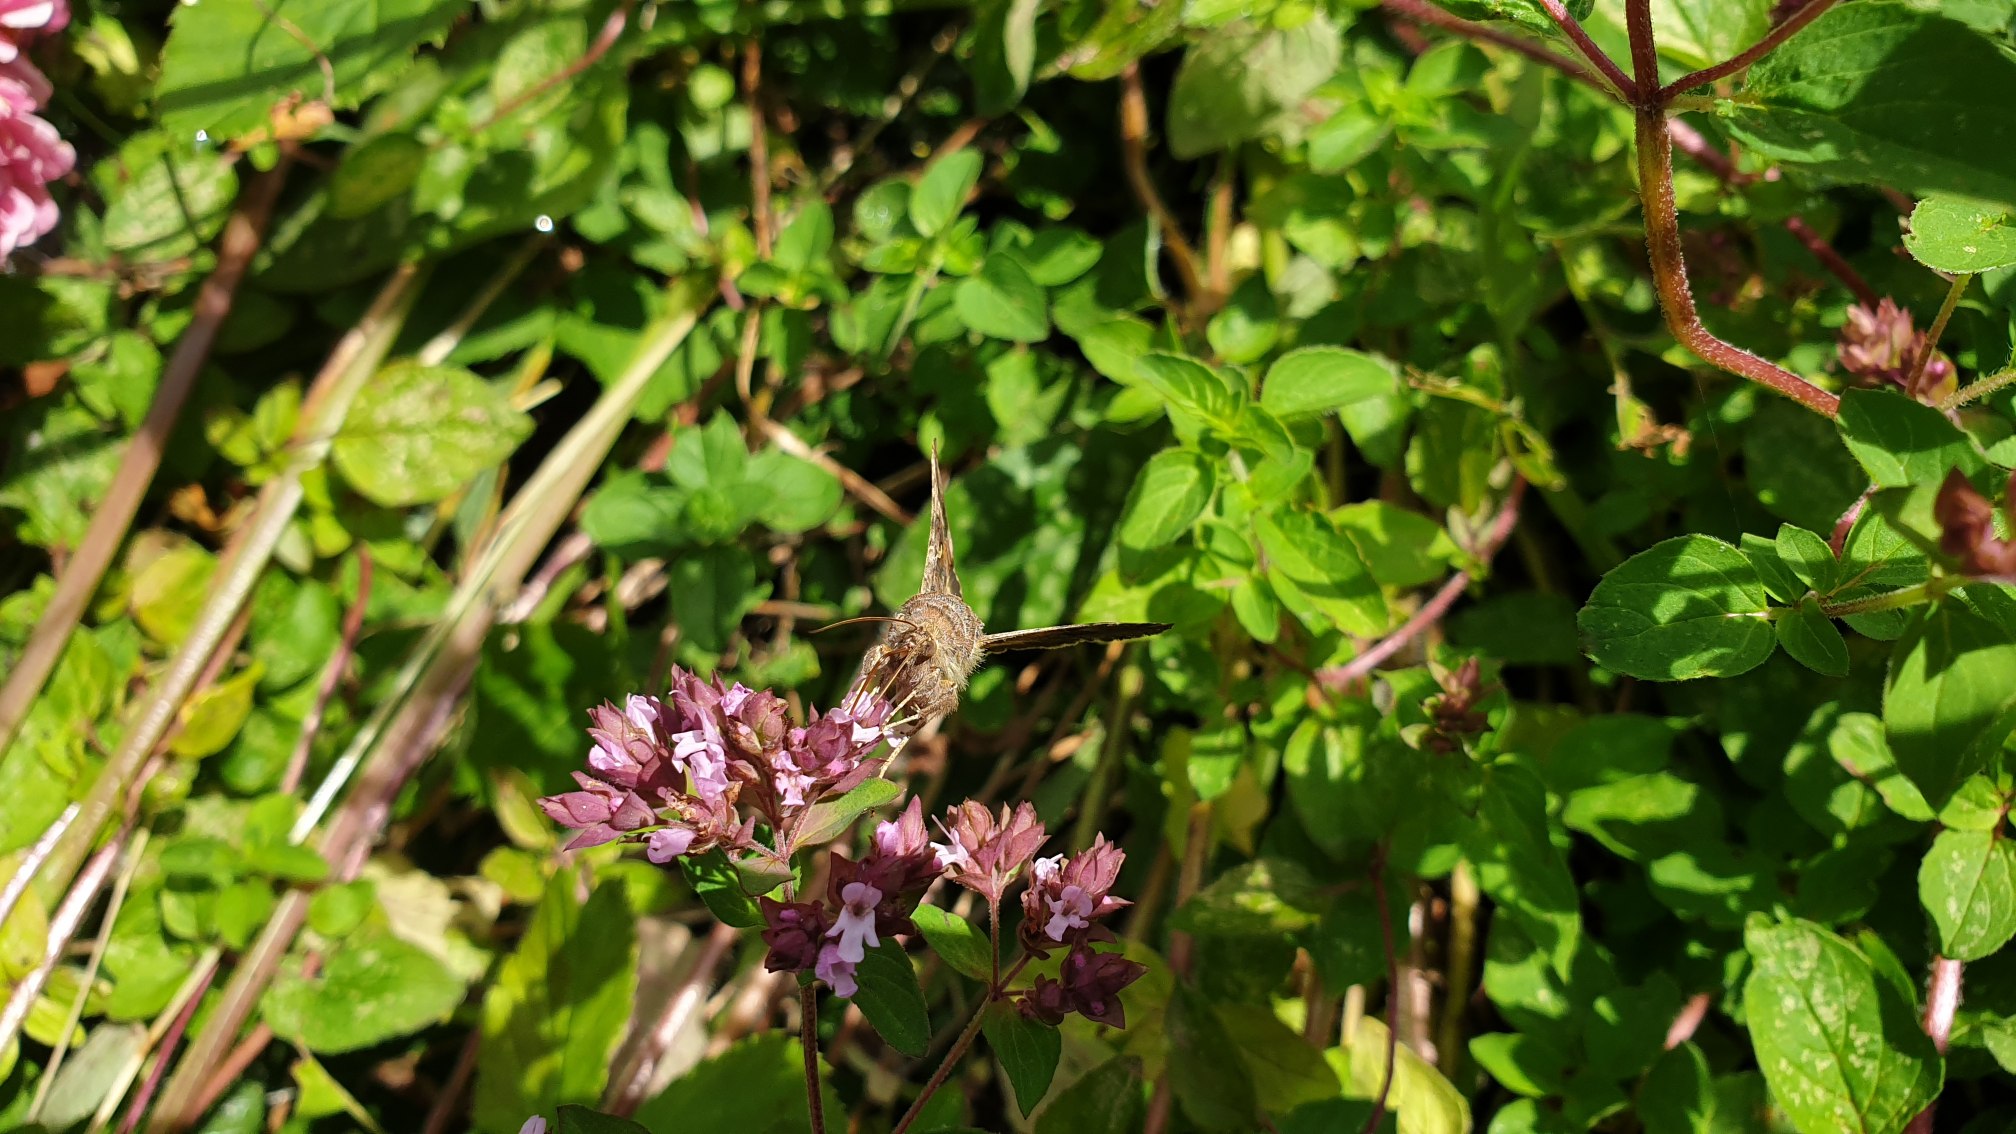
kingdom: Animalia
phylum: Arthropoda
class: Insecta
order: Lepidoptera
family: Noctuidae
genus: Autographa
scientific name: Autographa gamma
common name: Gammaugle
